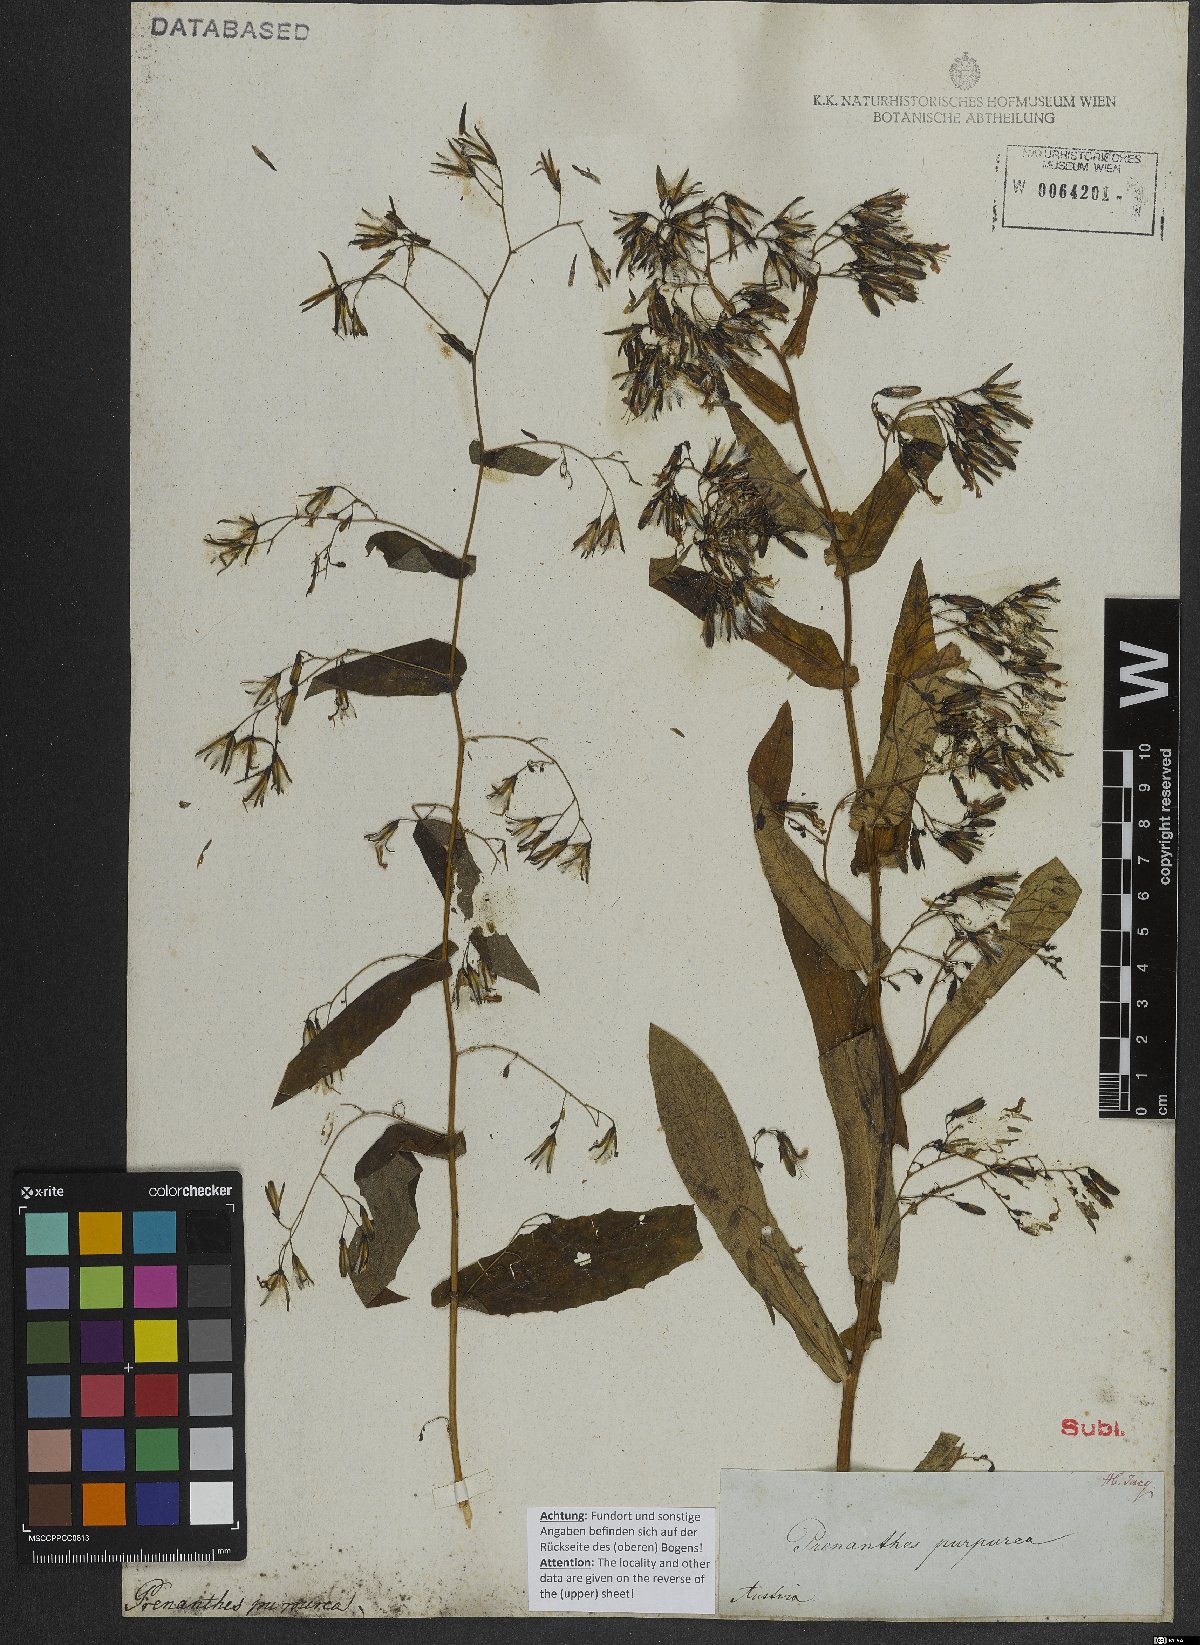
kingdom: Plantae
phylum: Tracheophyta
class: Magnoliopsida
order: Asterales
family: Asteraceae
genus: Prenanthes
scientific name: Prenanthes purpurea
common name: Purple lettuce
